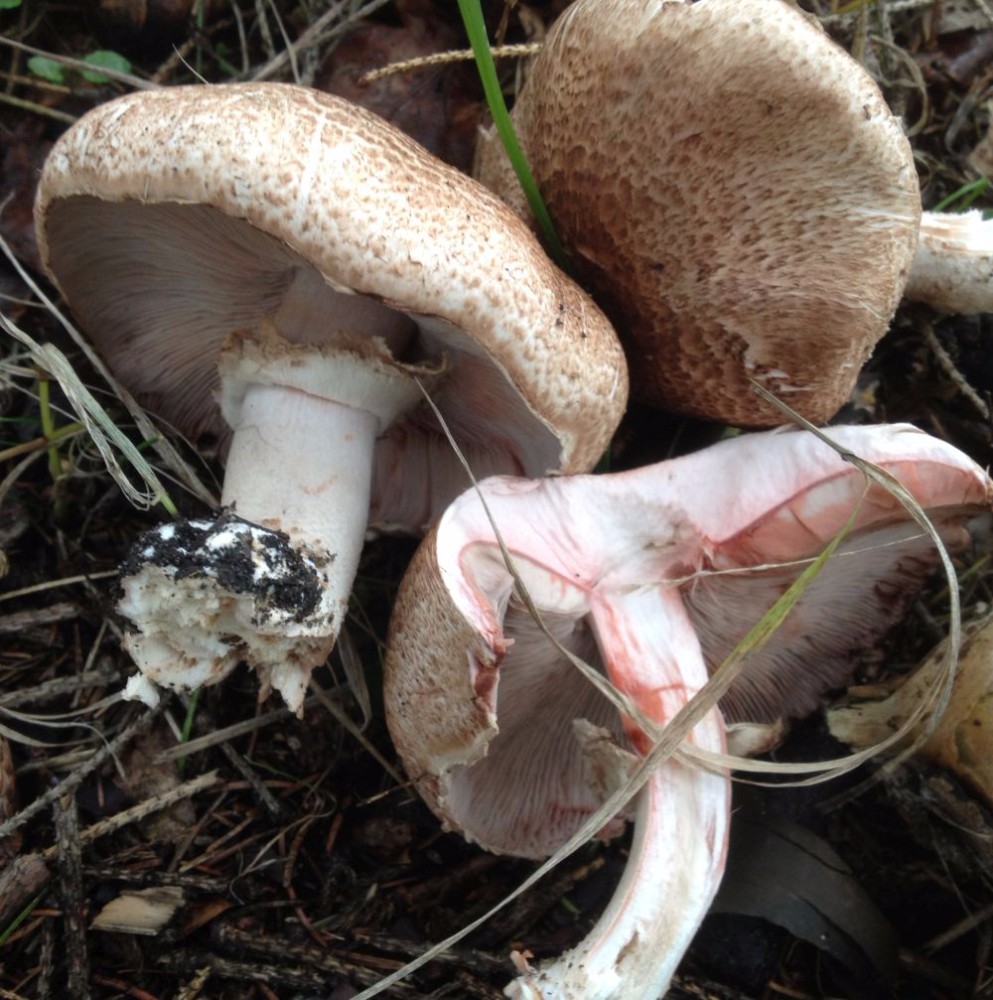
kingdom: Fungi
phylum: Basidiomycota
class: Agaricomycetes
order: Agaricales
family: Agaricaceae
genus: Agaricus
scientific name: Agaricus
